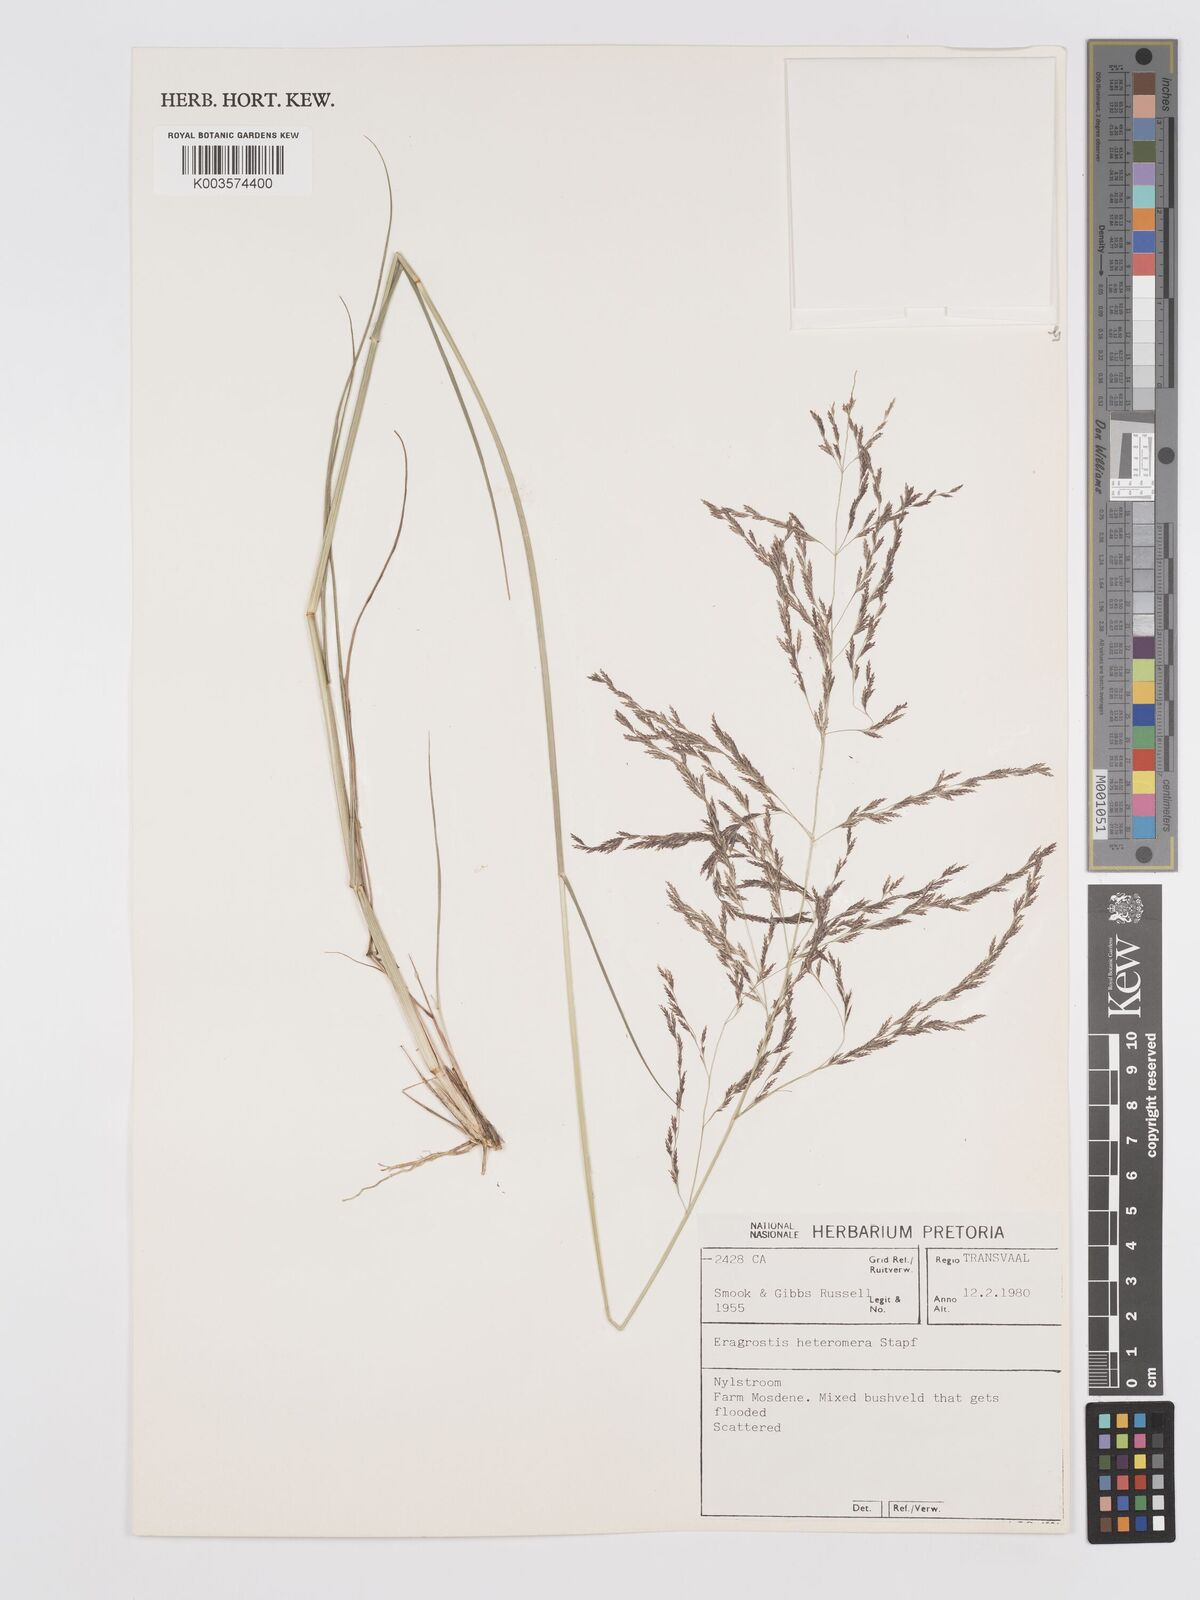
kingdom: Plantae
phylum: Tracheophyta
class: Liliopsida
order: Poales
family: Poaceae
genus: Eragrostis
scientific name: Eragrostis heteromera
